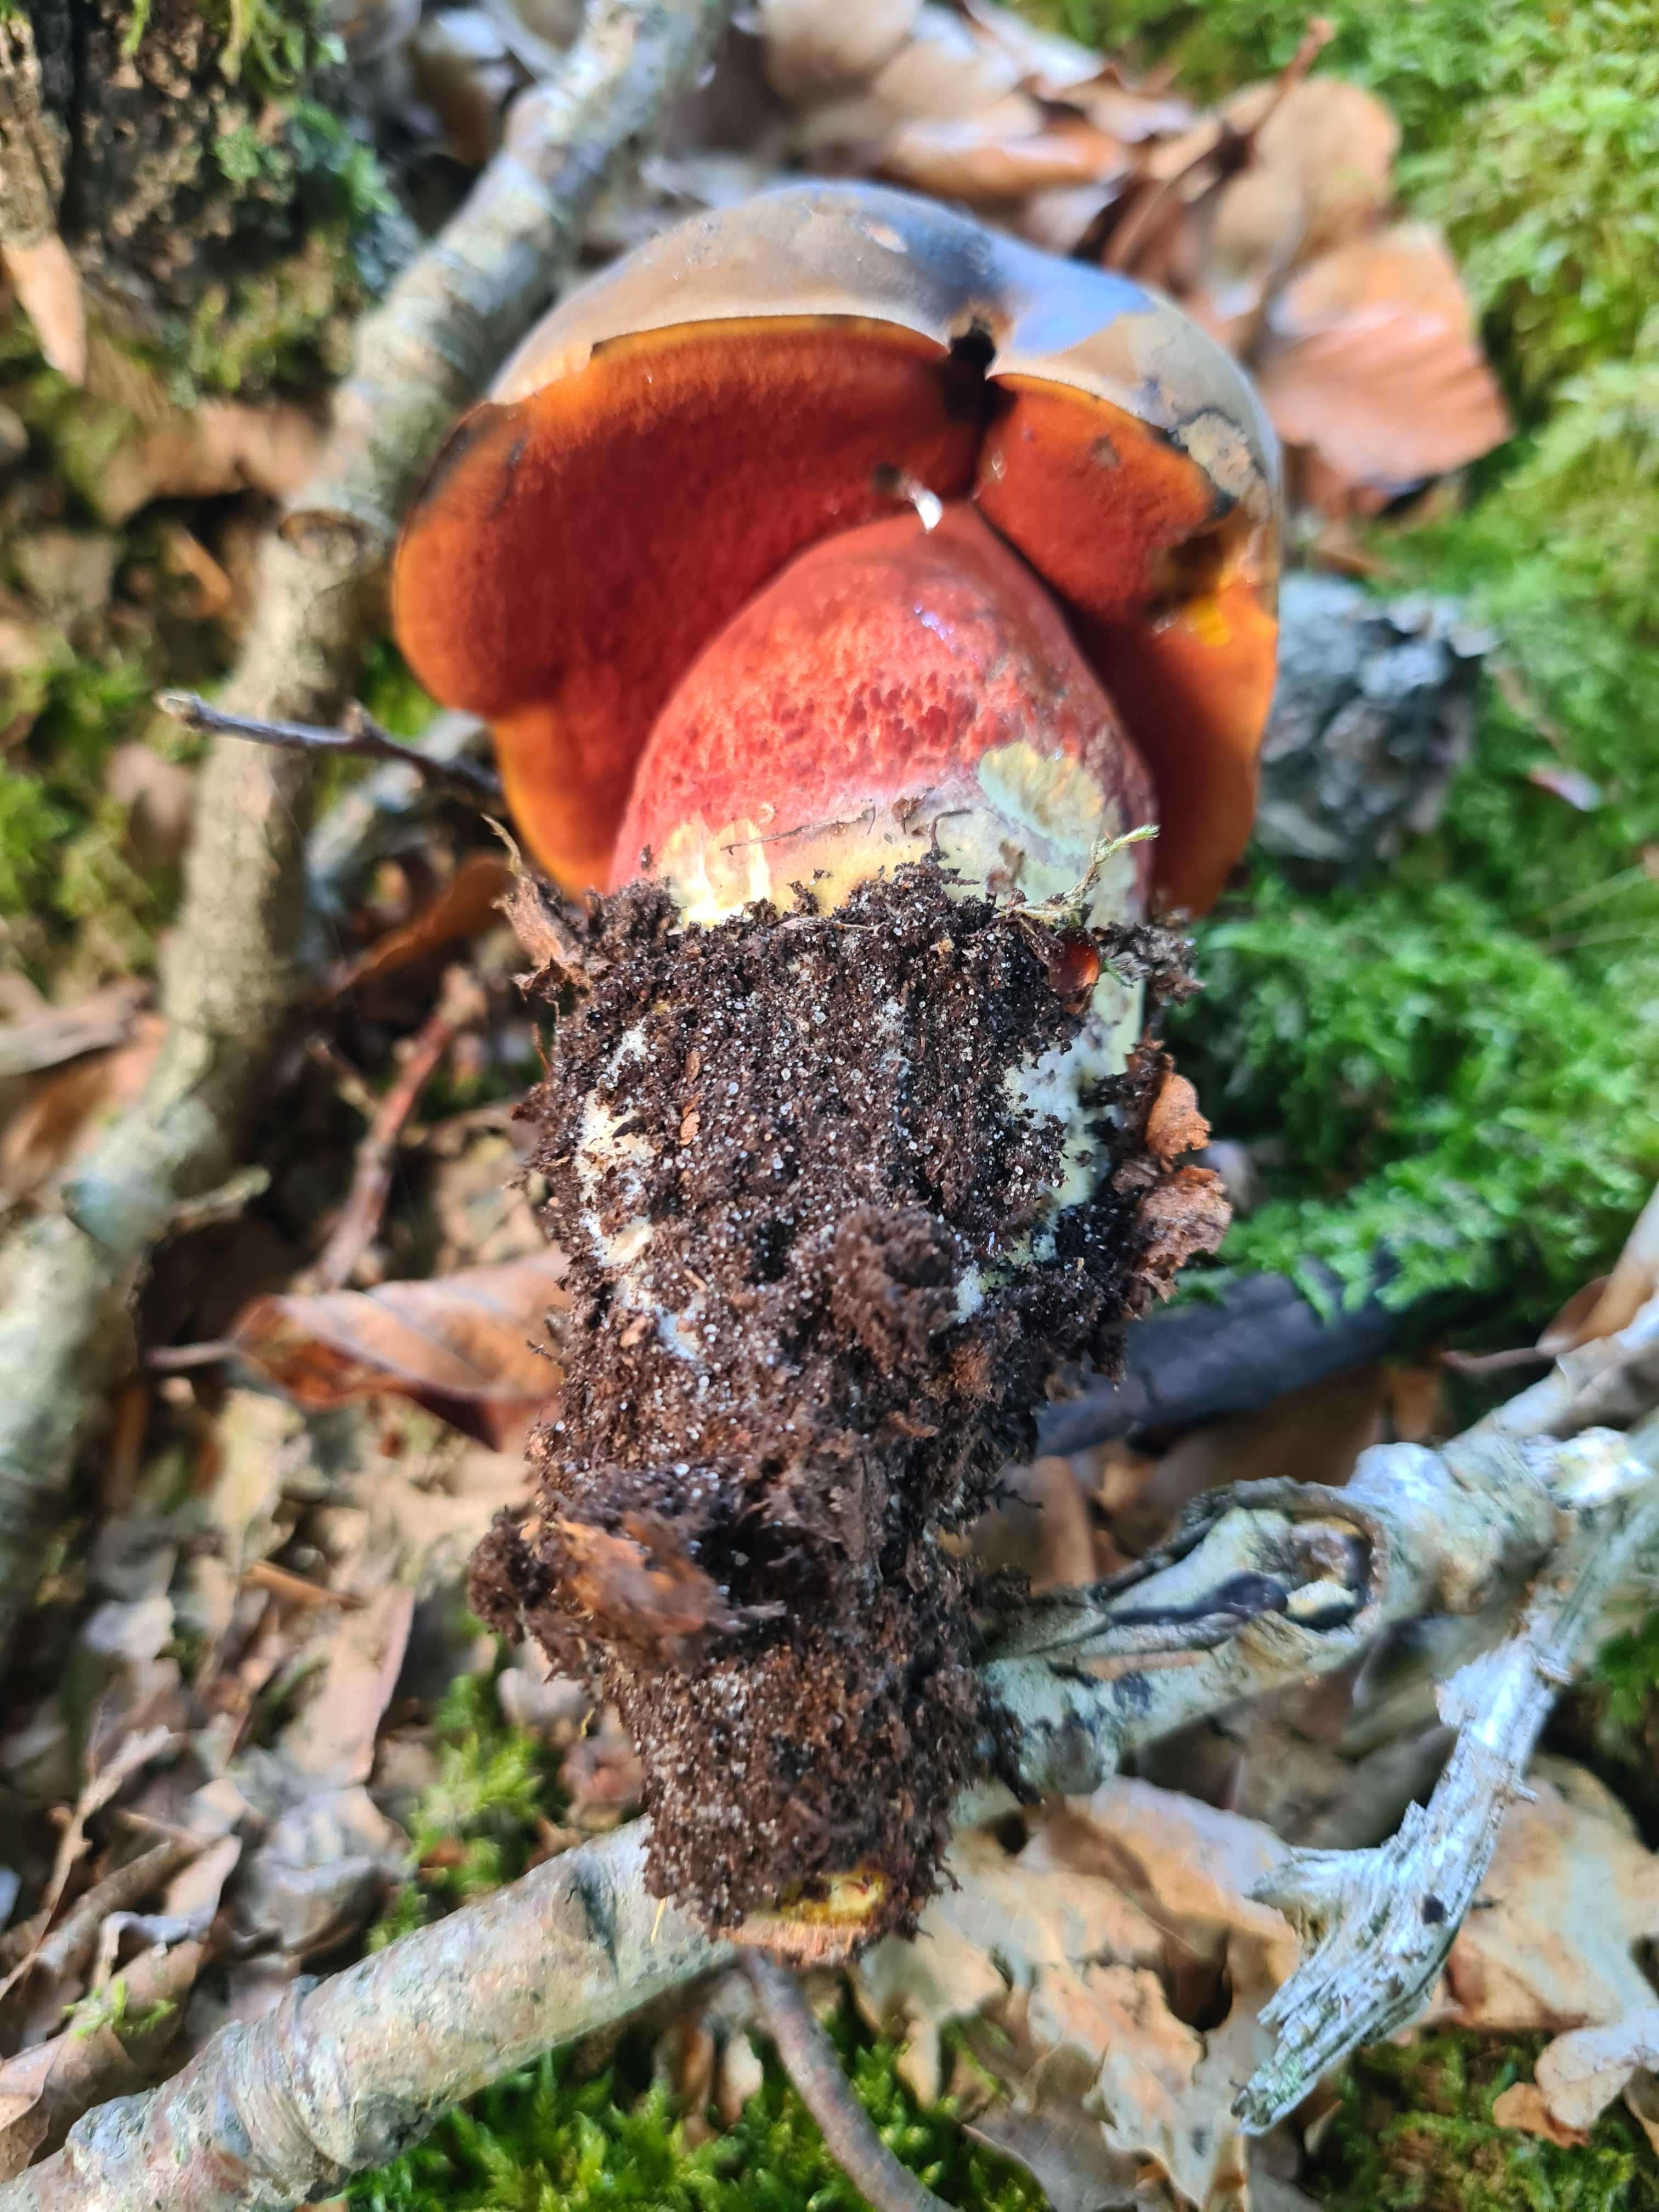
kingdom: Fungi
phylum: Basidiomycota
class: Agaricomycetes
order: Boletales
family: Boletaceae
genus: Neoboletus
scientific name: Neoboletus erythropus
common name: punktstokket indigorørhat
